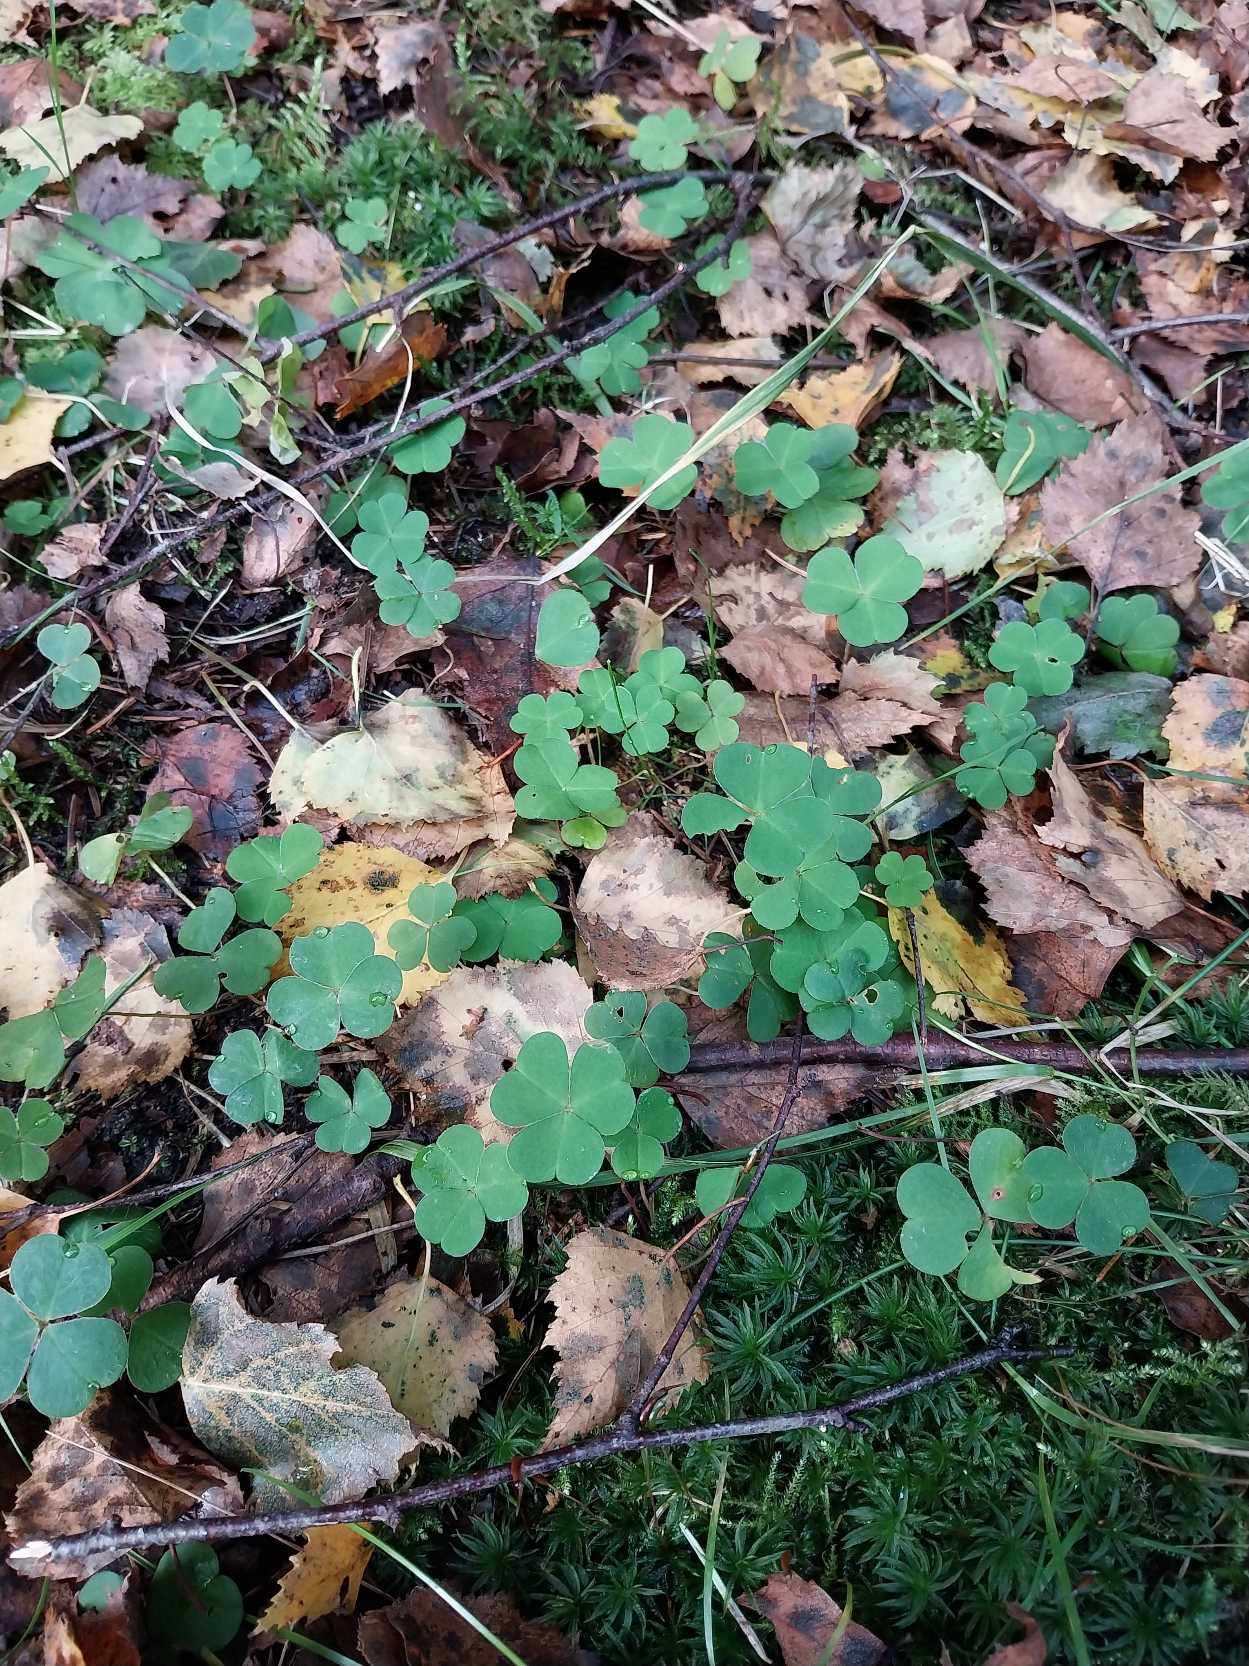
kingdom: Plantae
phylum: Tracheophyta
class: Magnoliopsida
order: Oxalidales
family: Oxalidaceae
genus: Oxalis
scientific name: Oxalis acetosella
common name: Skovsyre
